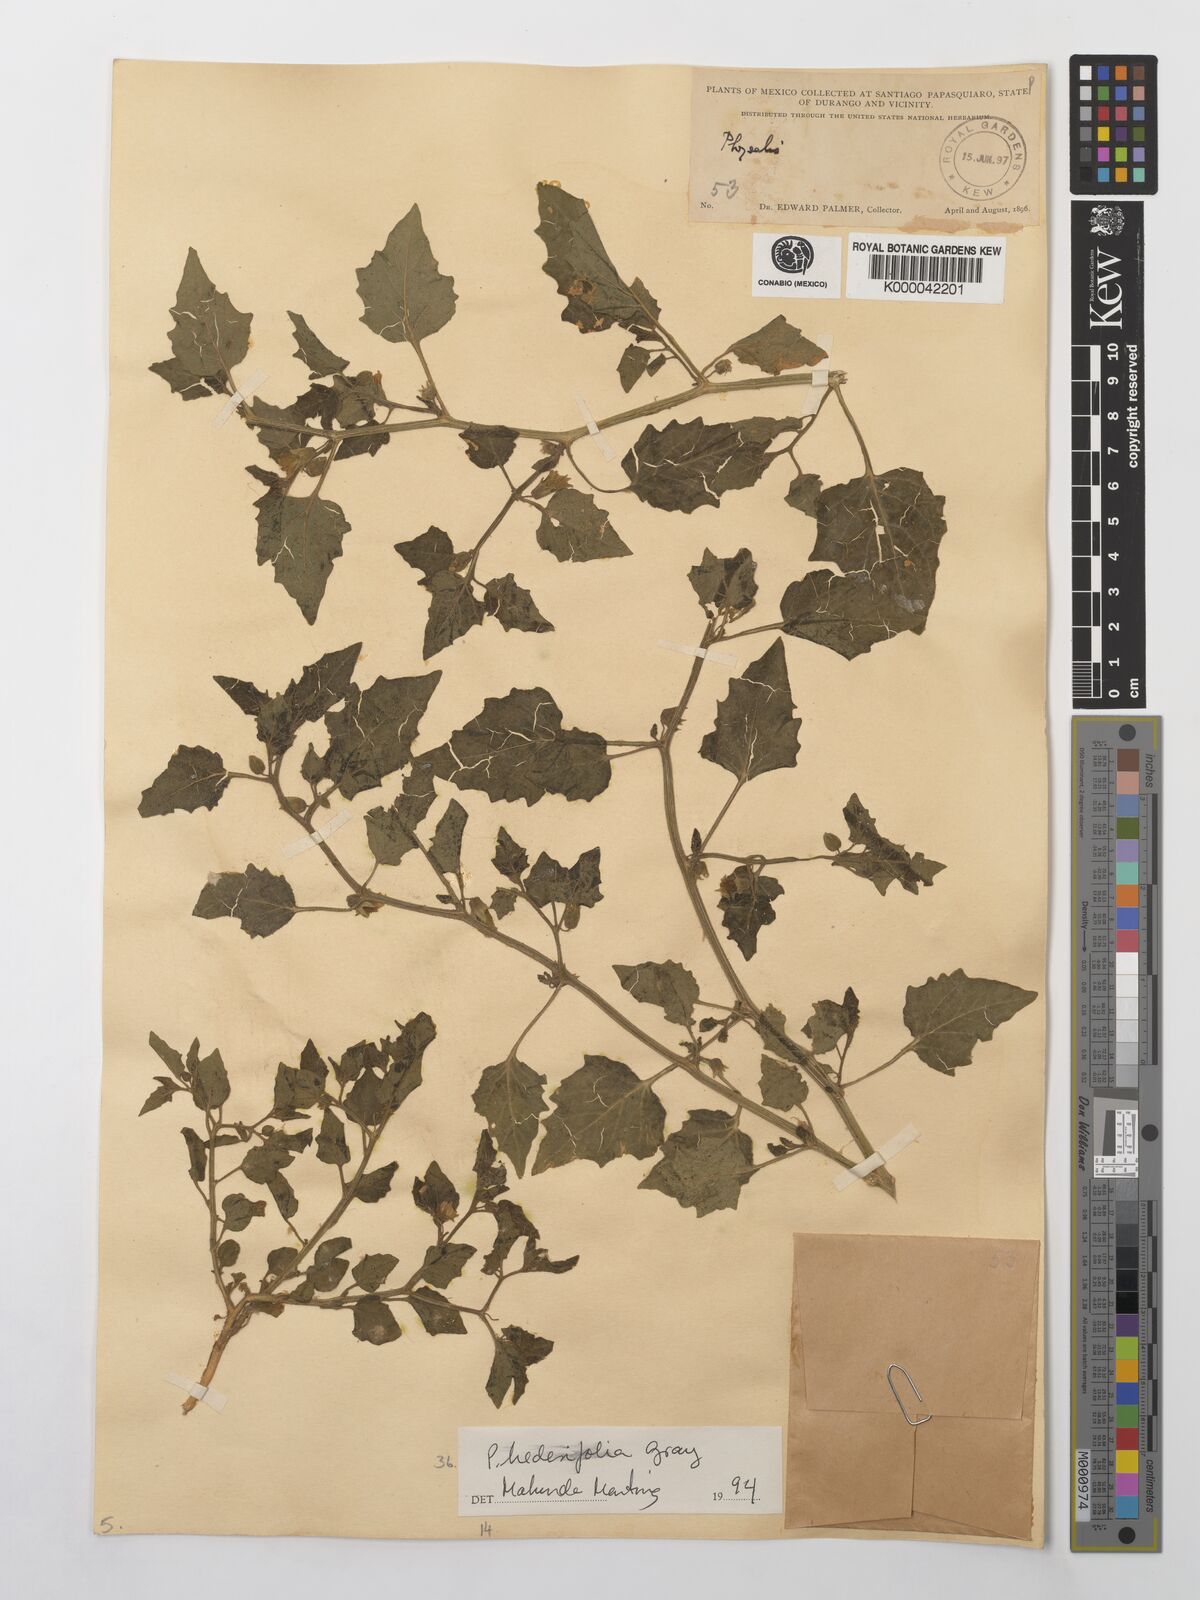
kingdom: Plantae
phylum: Tracheophyta
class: Magnoliopsida
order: Solanales
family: Solanaceae
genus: Physalis
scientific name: Physalis hederifolia
